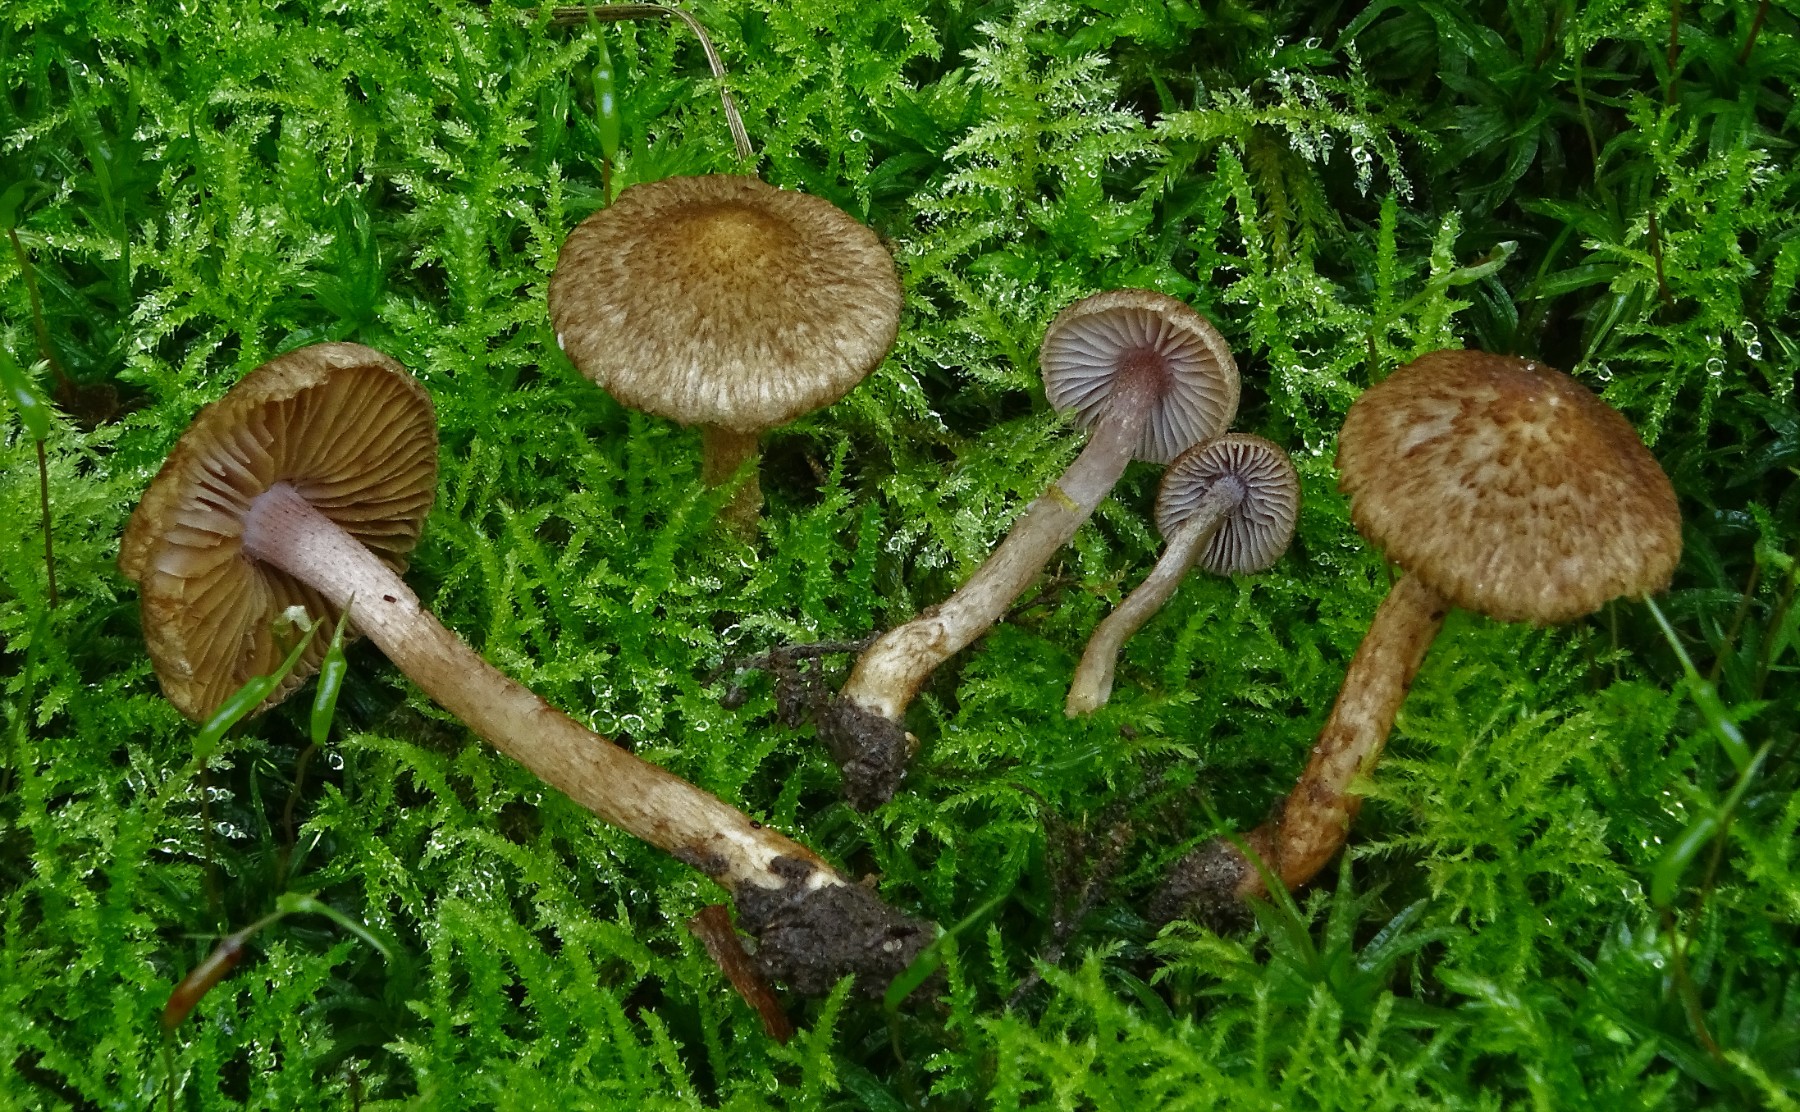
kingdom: Fungi
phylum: Basidiomycota
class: Agaricomycetes
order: Agaricales
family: Inocybaceae
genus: Inocybe
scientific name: Inocybe cincinnata
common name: lillabladet trævlhat
